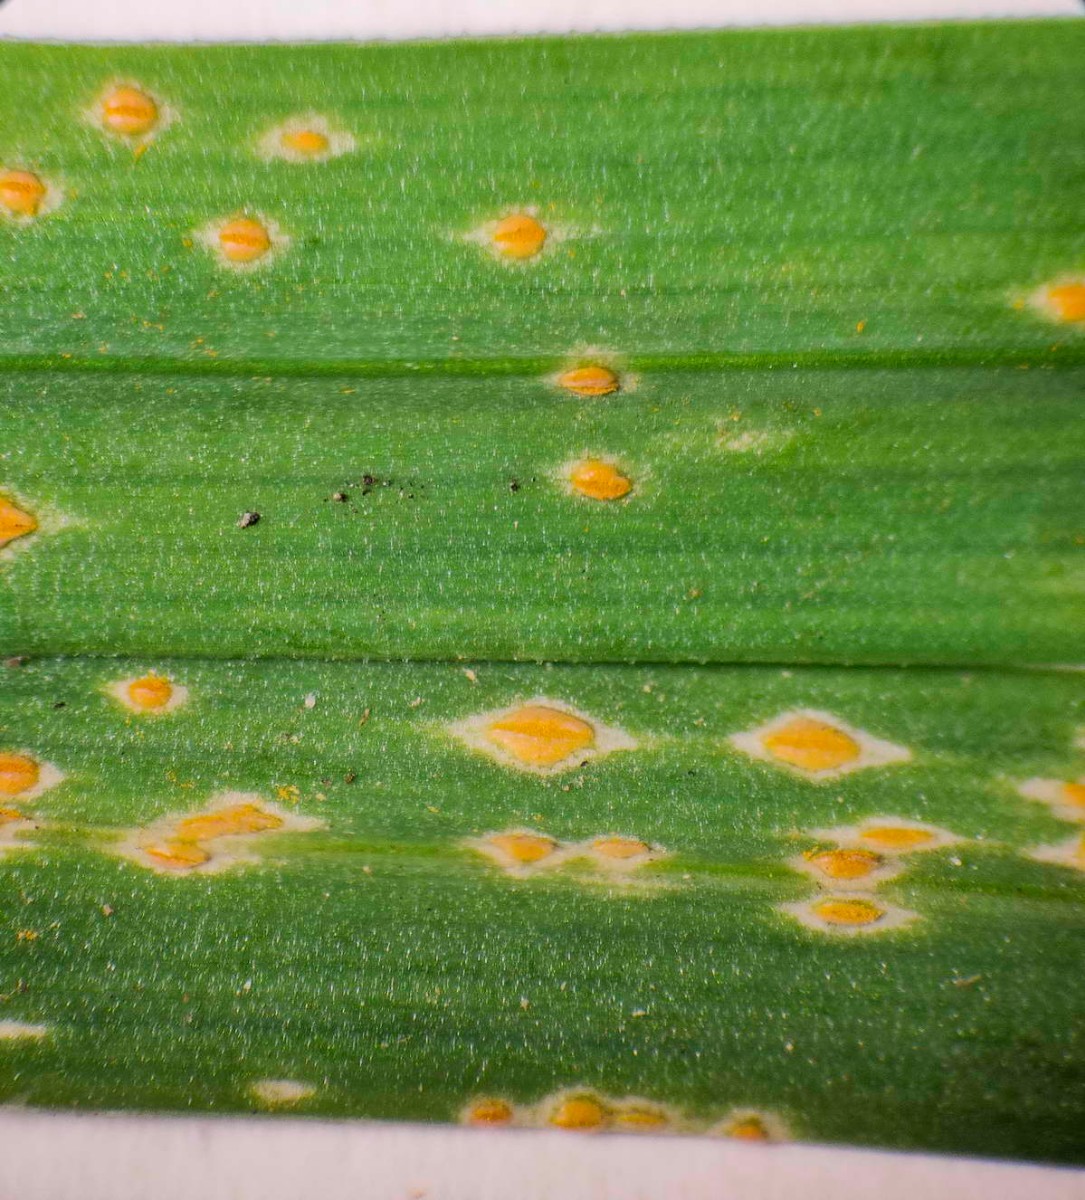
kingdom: Fungi
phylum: Basidiomycota
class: Pucciniomycetes
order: Pucciniales
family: Pucciniaceae
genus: Puccinia
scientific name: Puccinia porri
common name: Allium rust
